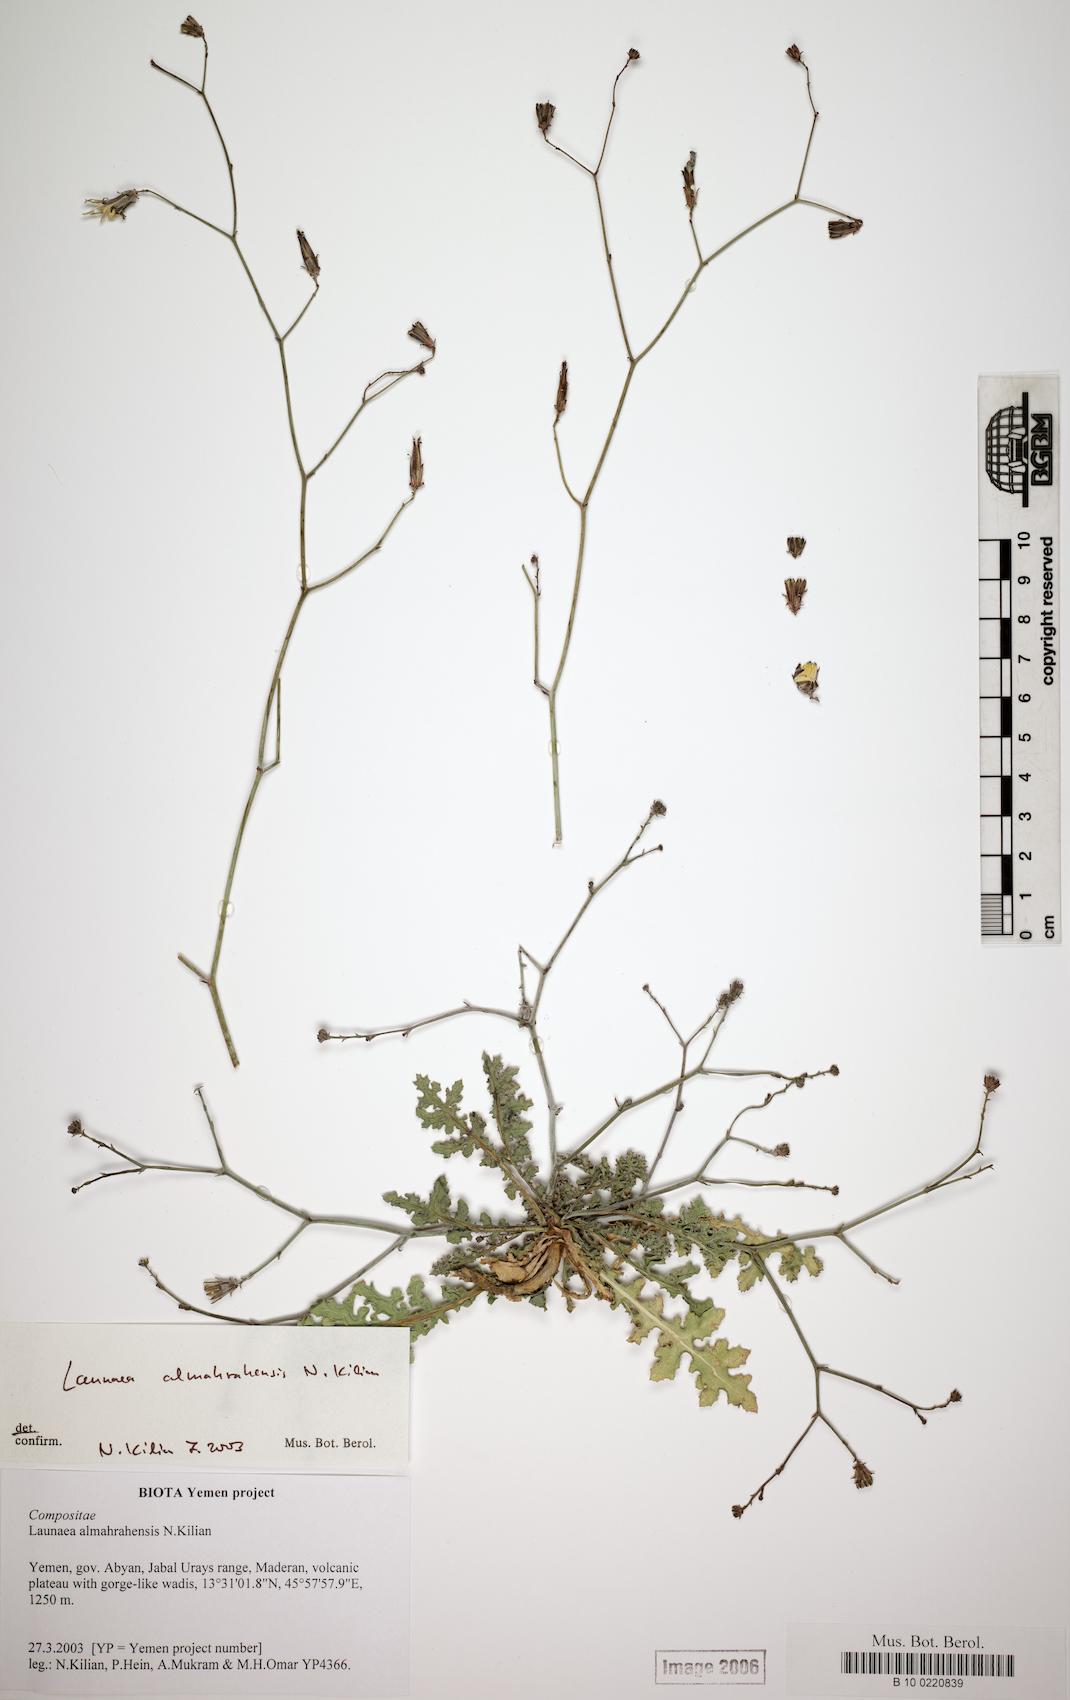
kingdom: Plantae
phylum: Tracheophyta
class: Magnoliopsida
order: Asterales
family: Asteraceae
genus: Launaea
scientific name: Launaea almahrahensis
